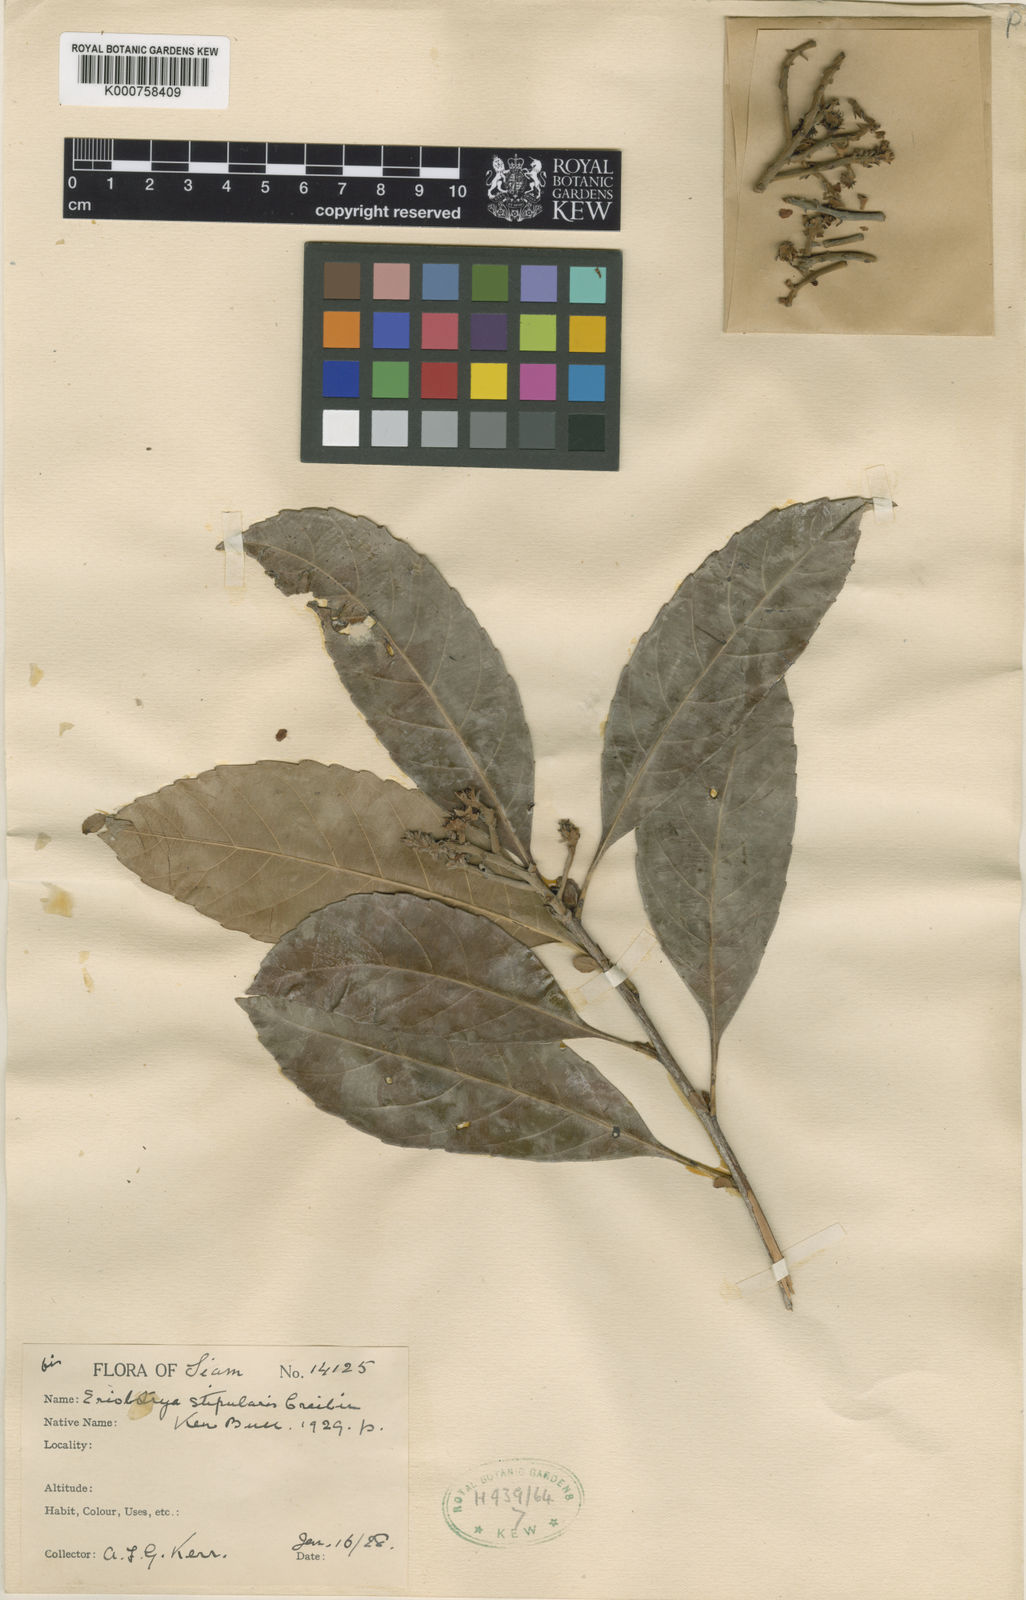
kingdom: Plantae
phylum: Tracheophyta
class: Magnoliopsida
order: Rosales
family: Rosaceae
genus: Rhaphiolepis
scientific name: Rhaphiolepis stipularis
